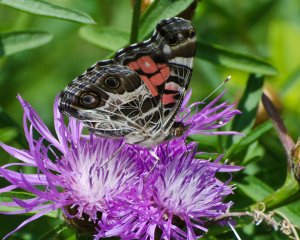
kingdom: Animalia
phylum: Arthropoda
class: Insecta
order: Lepidoptera
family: Nymphalidae
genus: Vanessa
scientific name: Vanessa virginiensis
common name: American Lady
